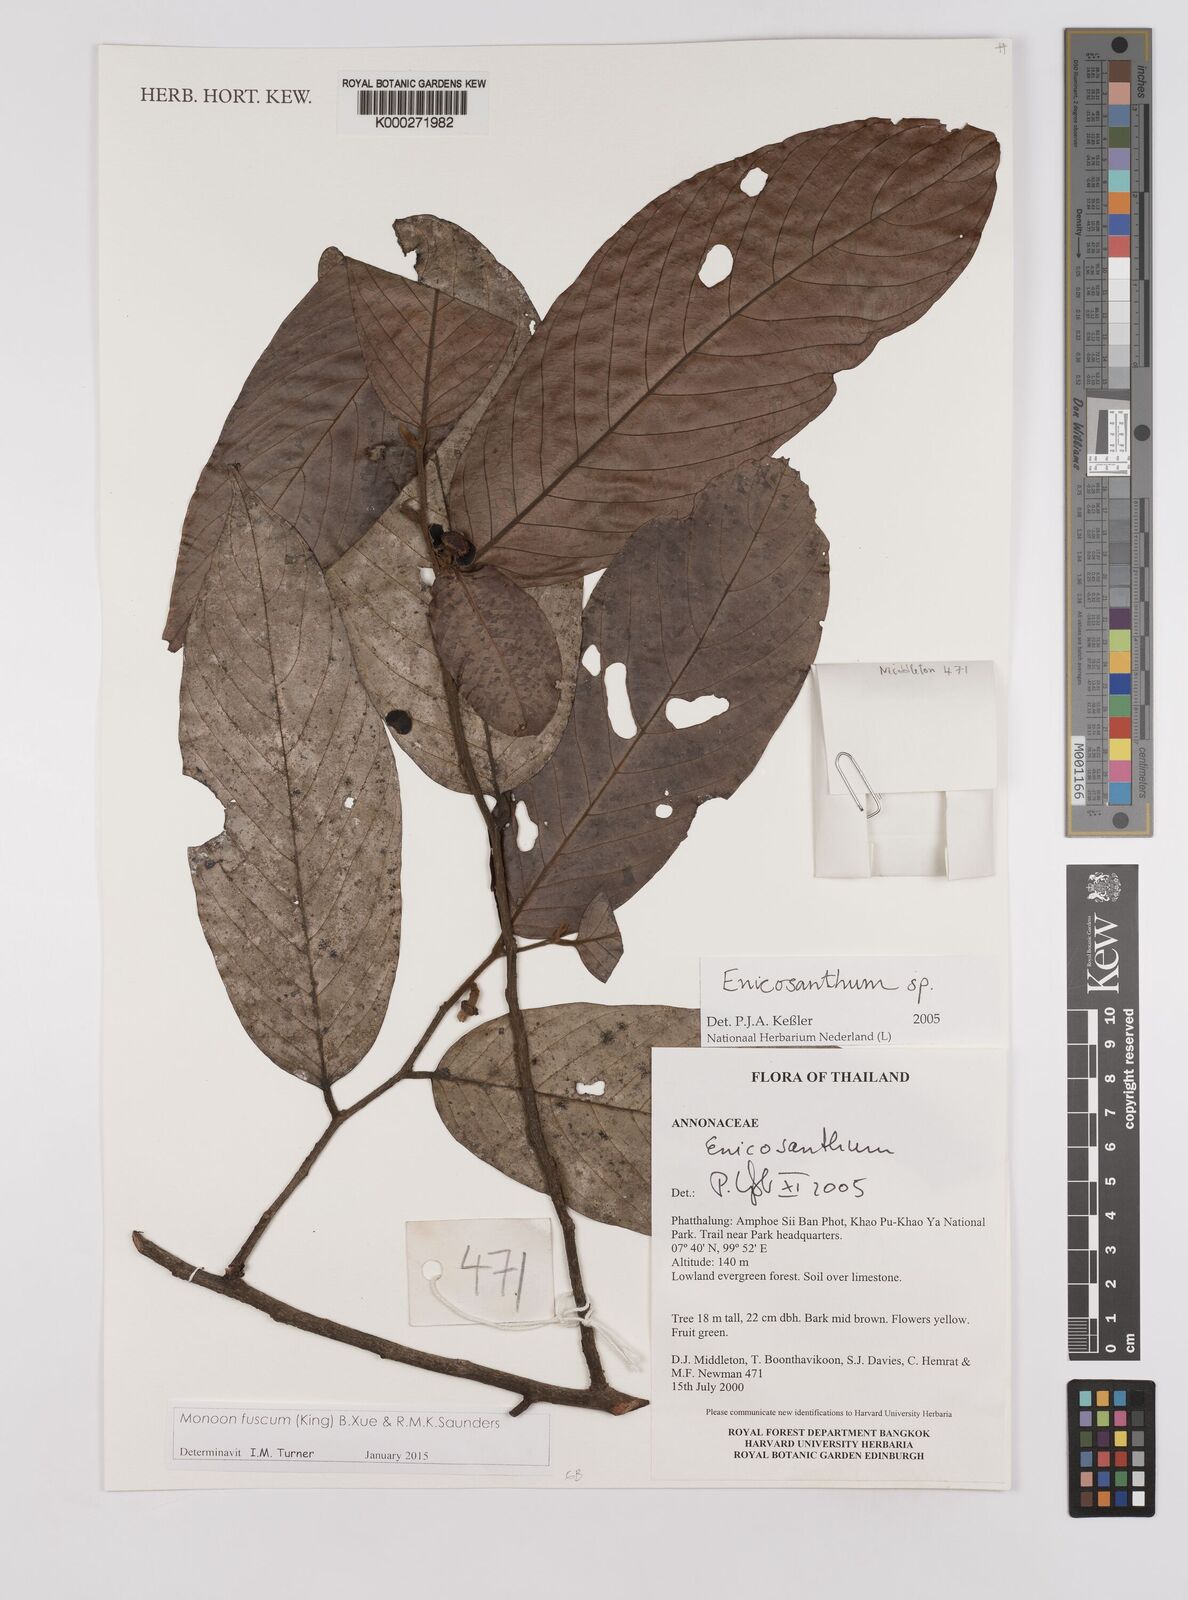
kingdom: Plantae
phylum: Tracheophyta
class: Magnoliopsida
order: Magnoliales
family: Annonaceae
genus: Enicosanthum
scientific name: Enicosanthum
